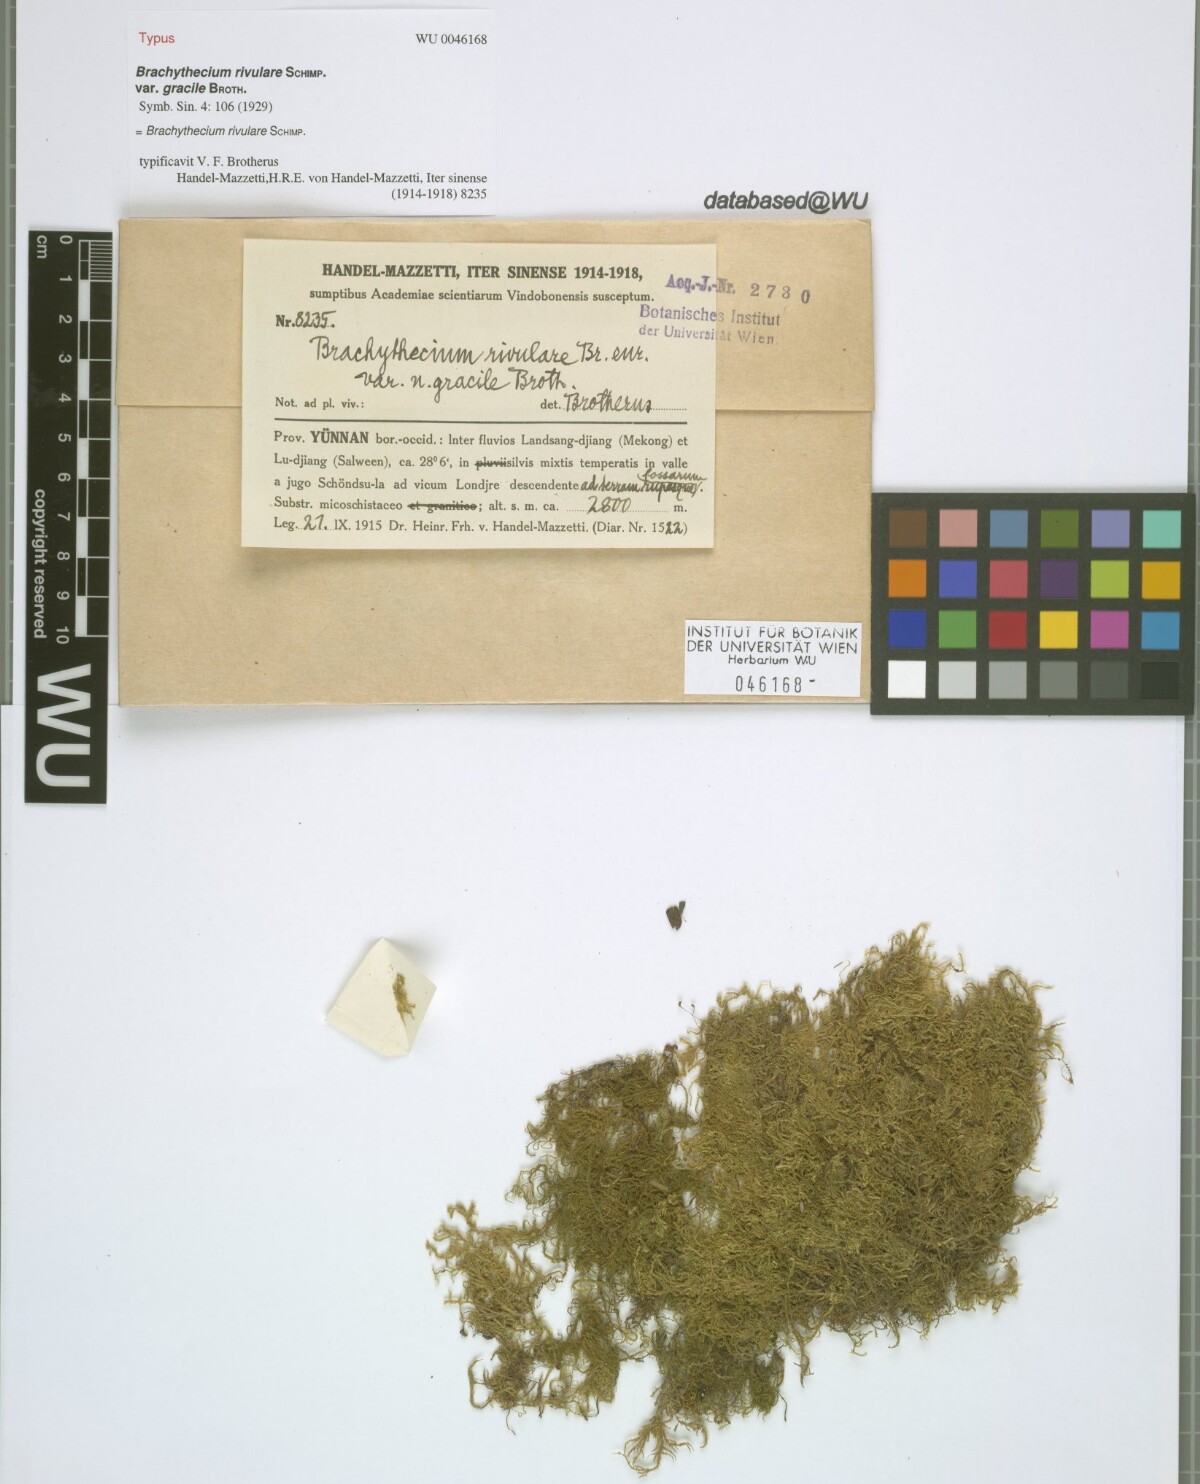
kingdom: Plantae
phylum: Bryophyta
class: Bryopsida
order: Hypnales
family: Brachytheciaceae
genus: Brachythecium
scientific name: Brachythecium rivulare
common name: River ragged moss
